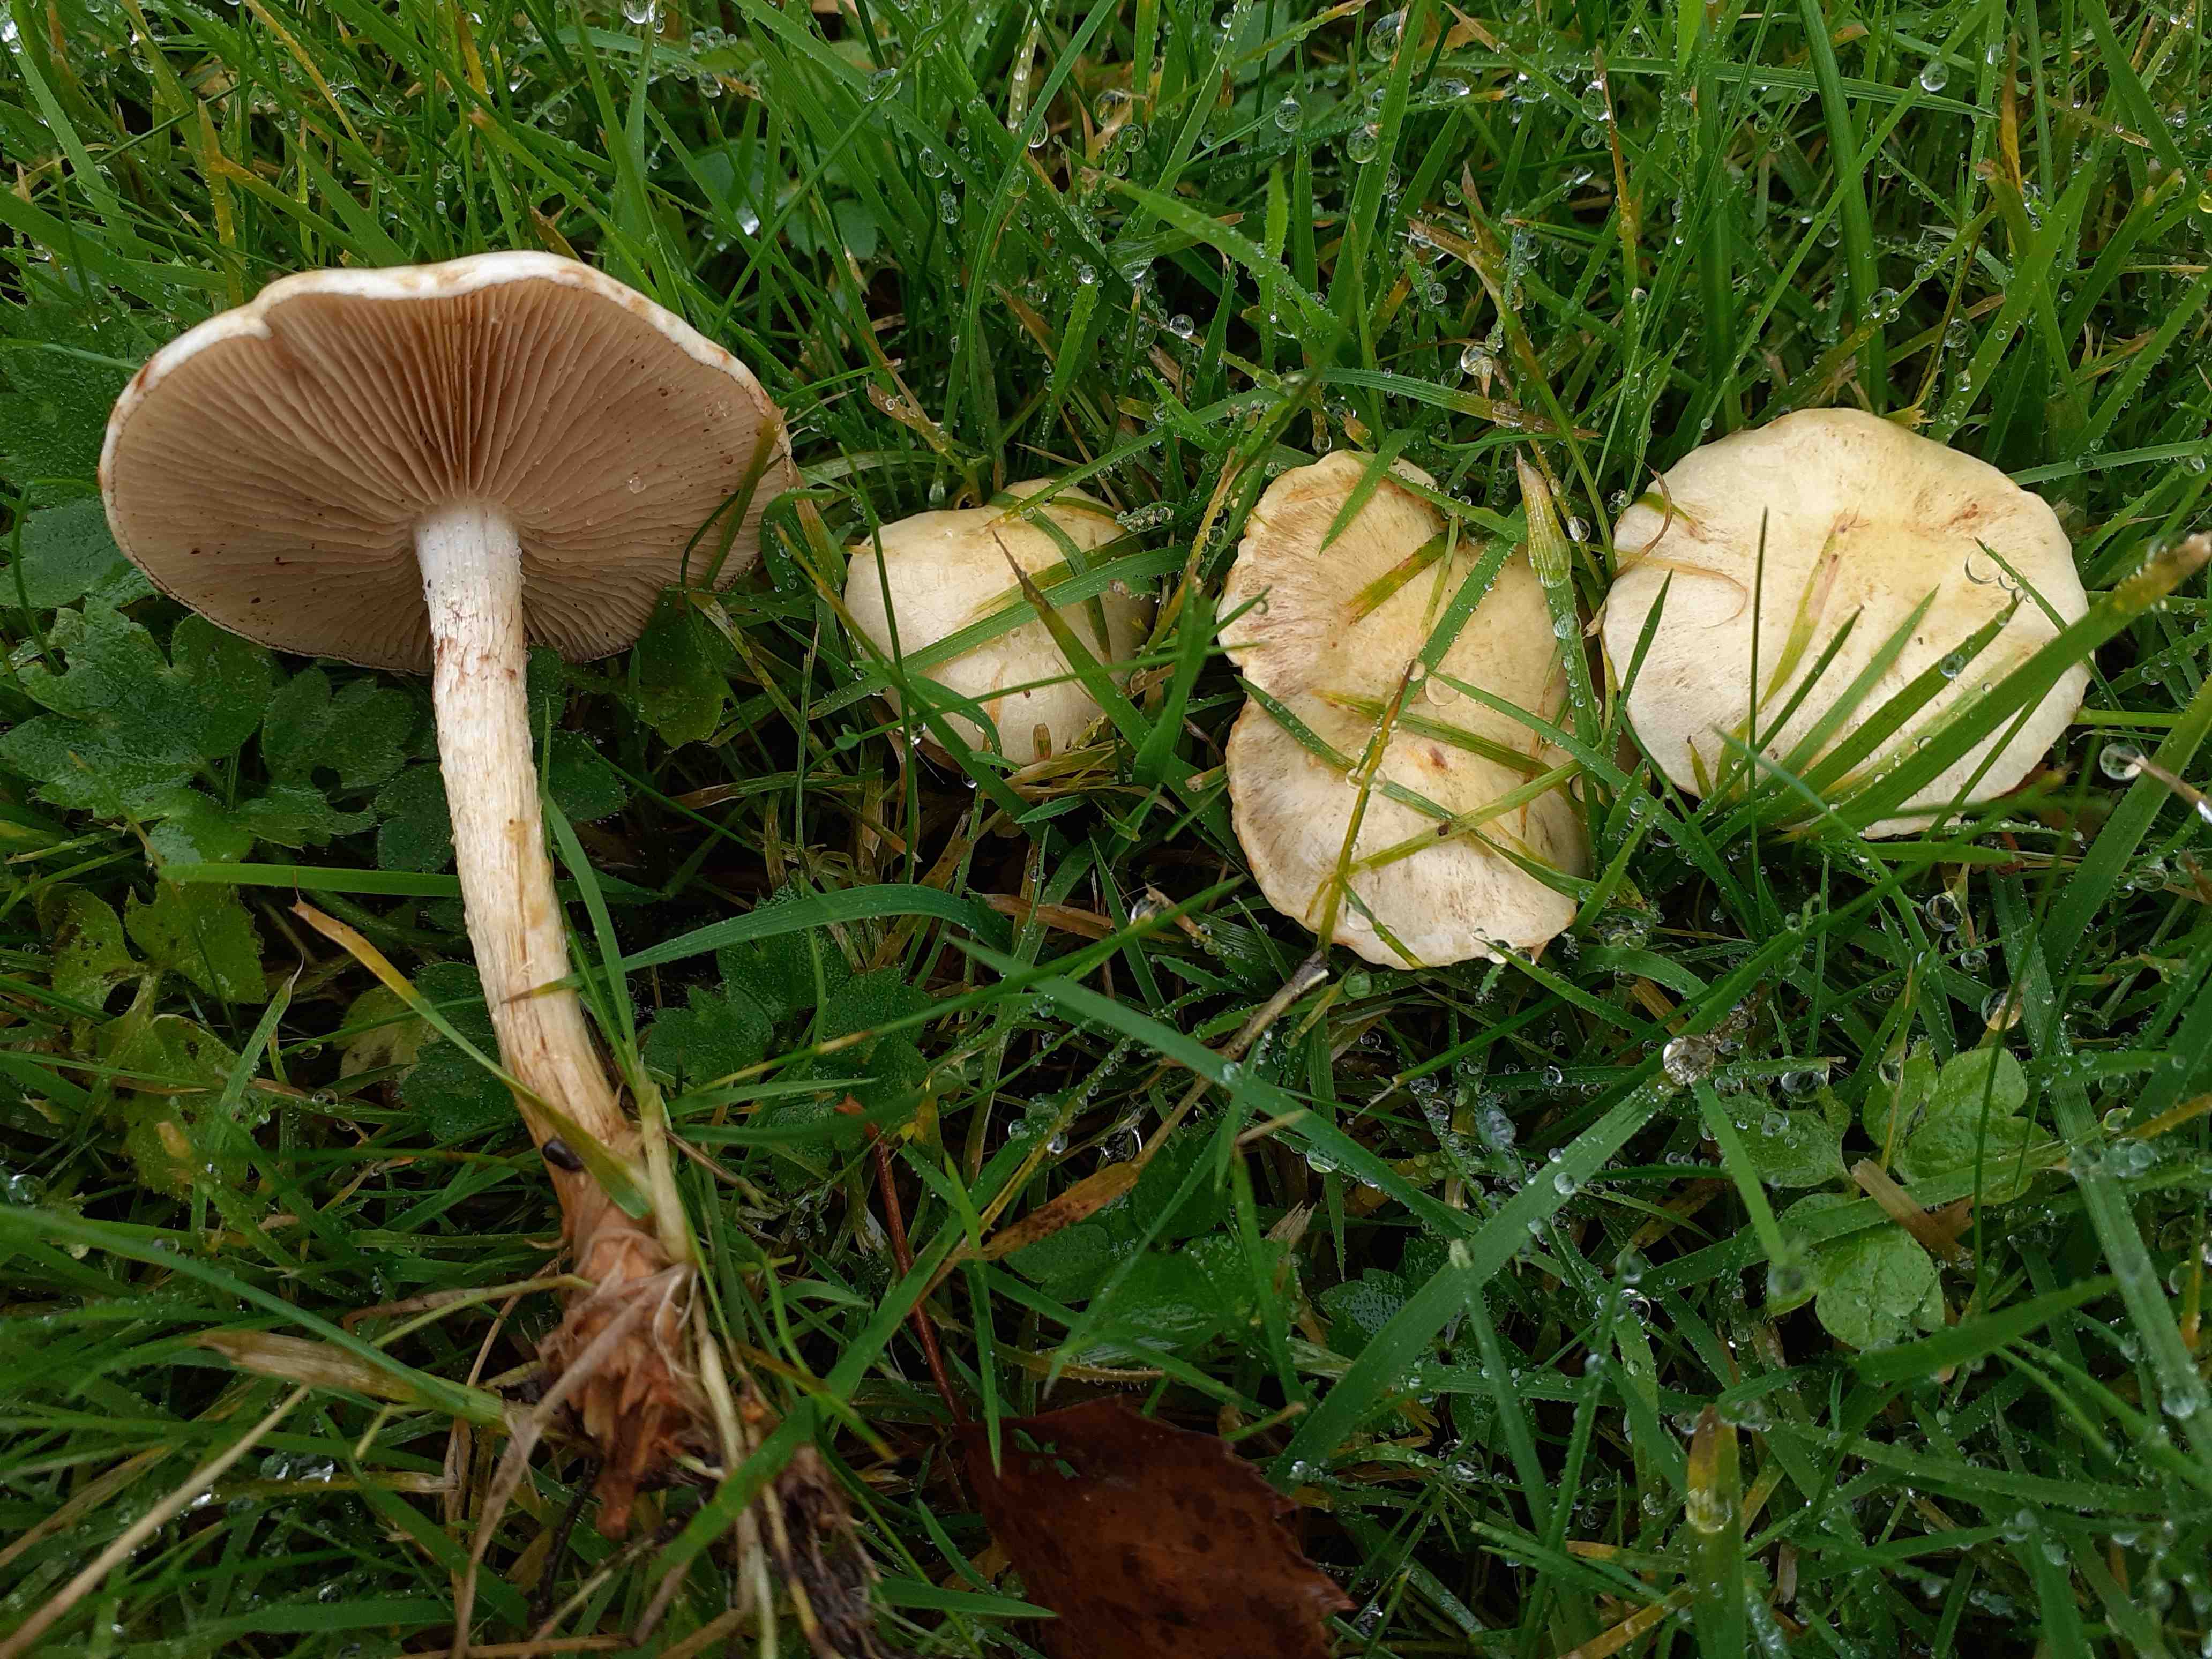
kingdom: Fungi
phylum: Basidiomycota
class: Agaricomycetes
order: Agaricales
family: Strophariaceae
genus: Pholiota
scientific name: Pholiota gummosa
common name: grøngul skælhat
